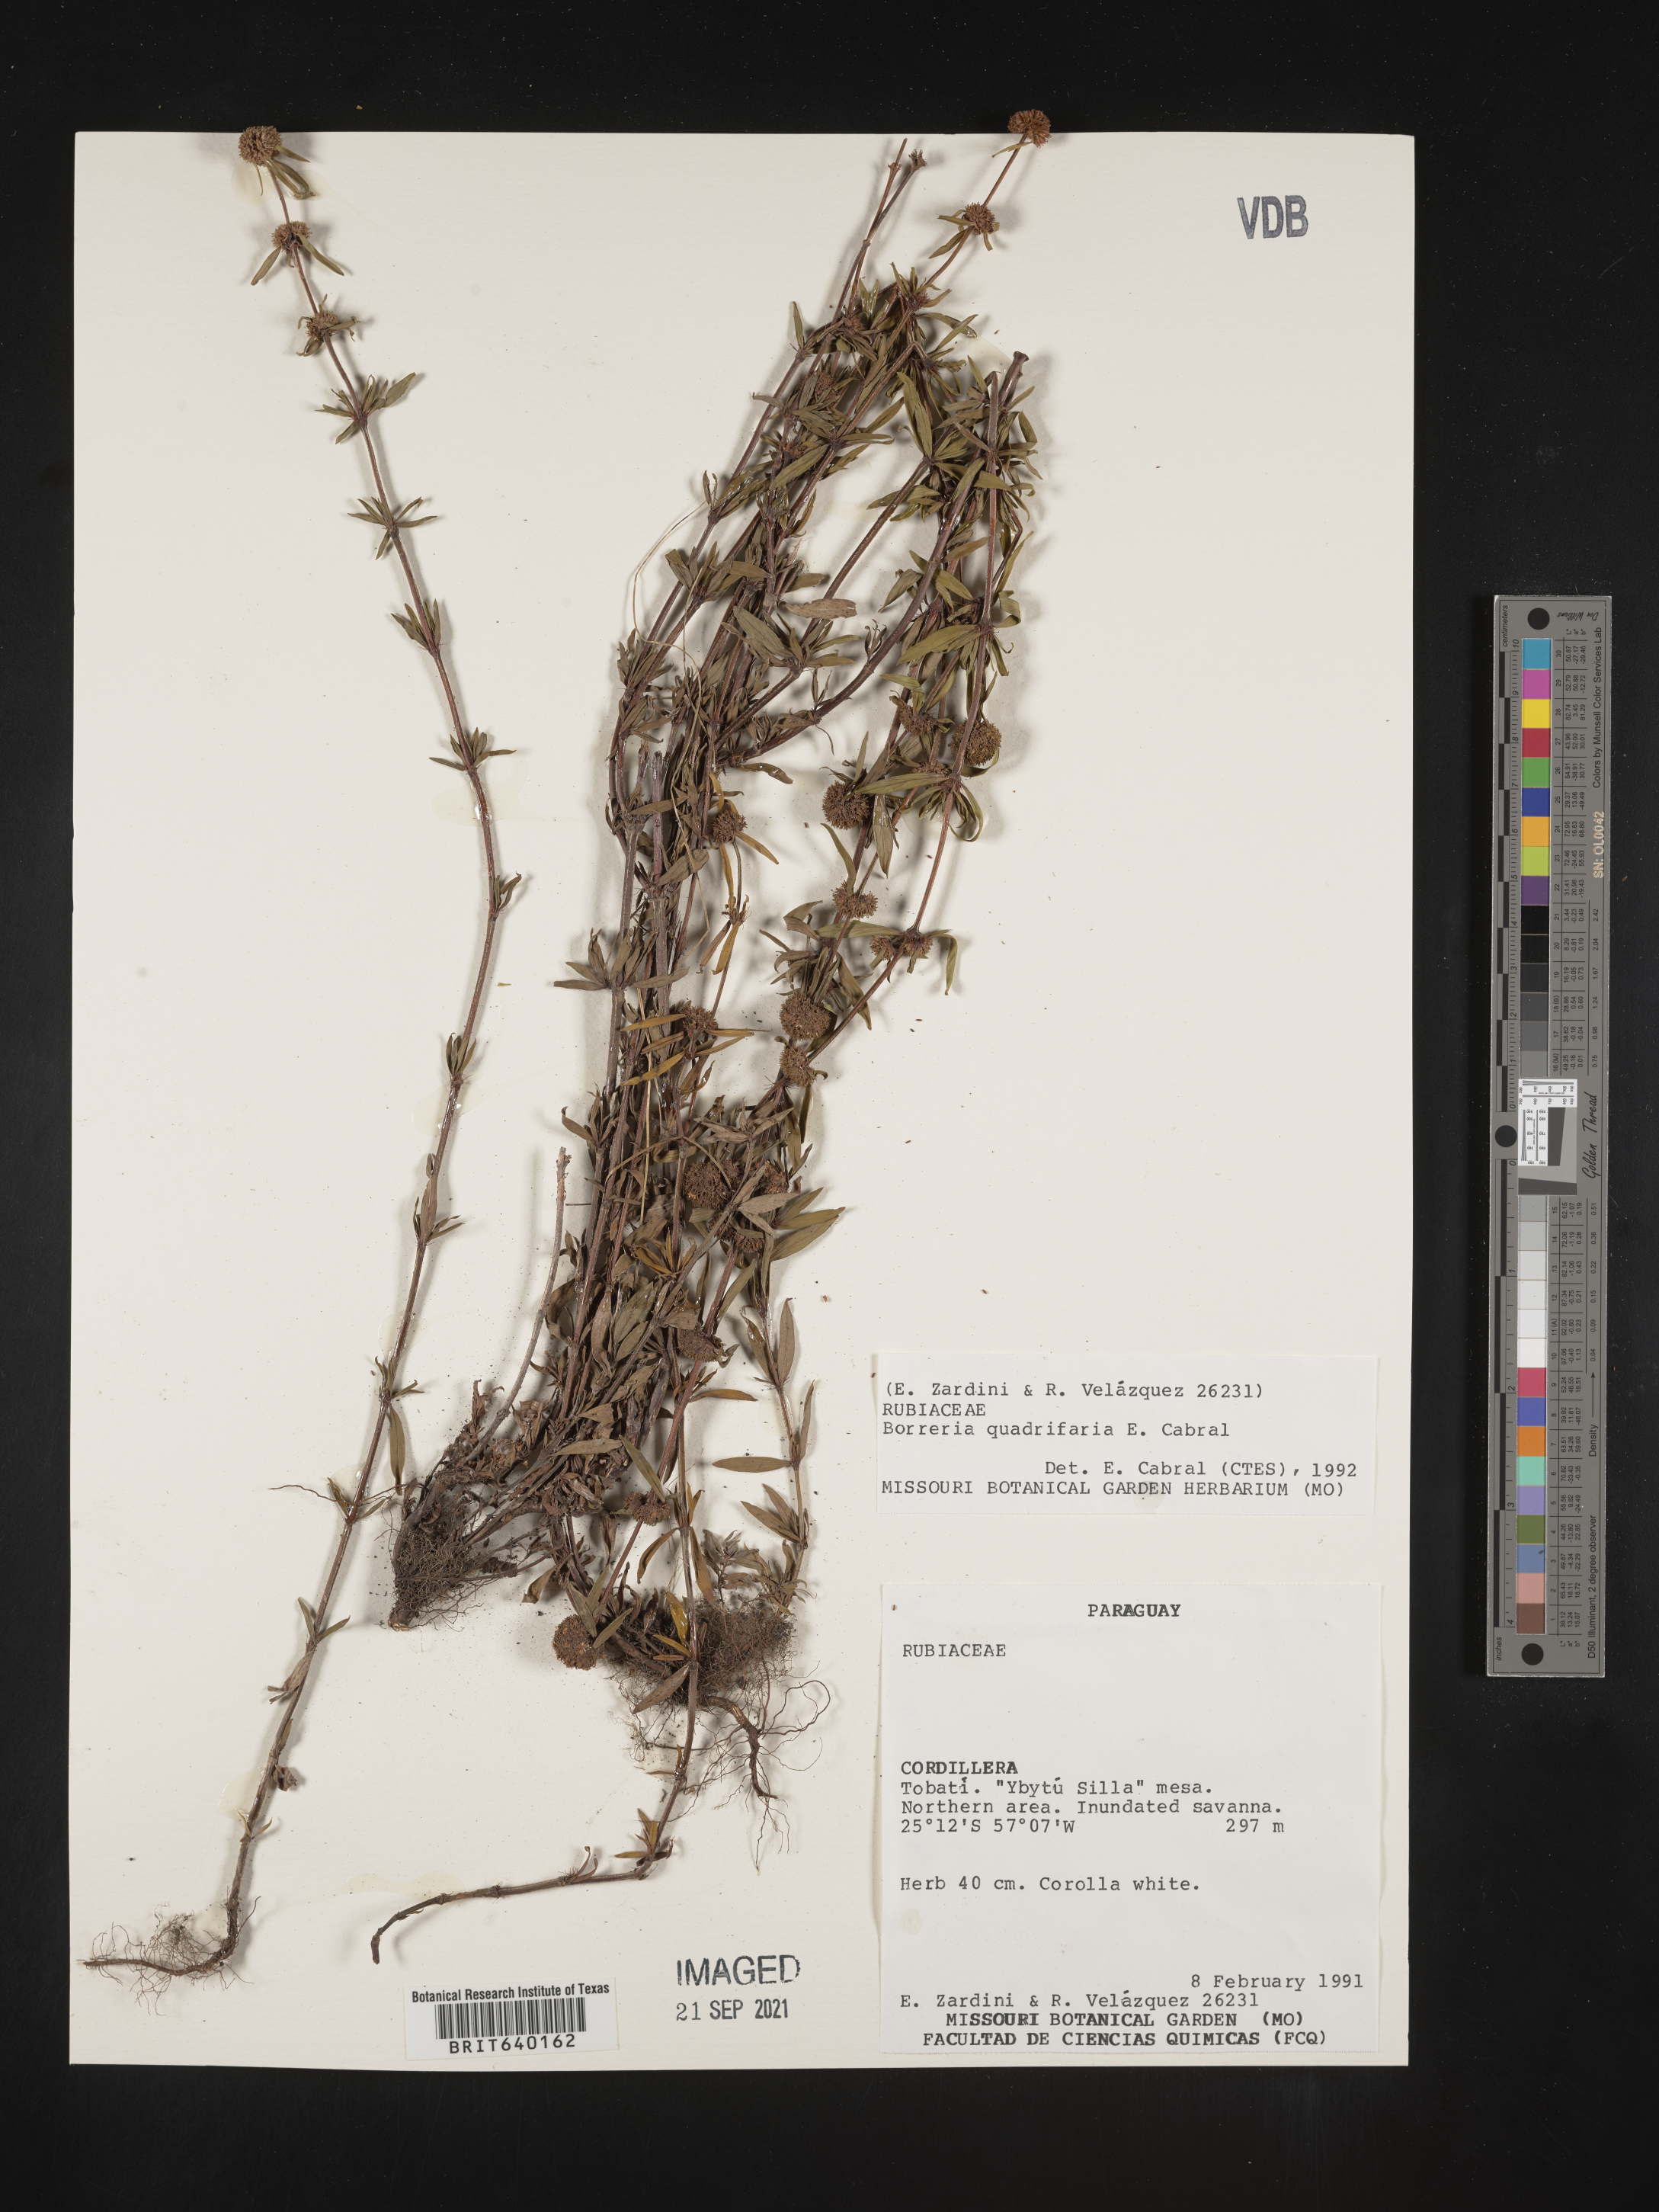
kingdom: Plantae
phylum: Tracheophyta
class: Magnoliopsida
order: Gentianales
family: Rubiaceae
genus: Spermacoce
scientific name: Spermacoce
